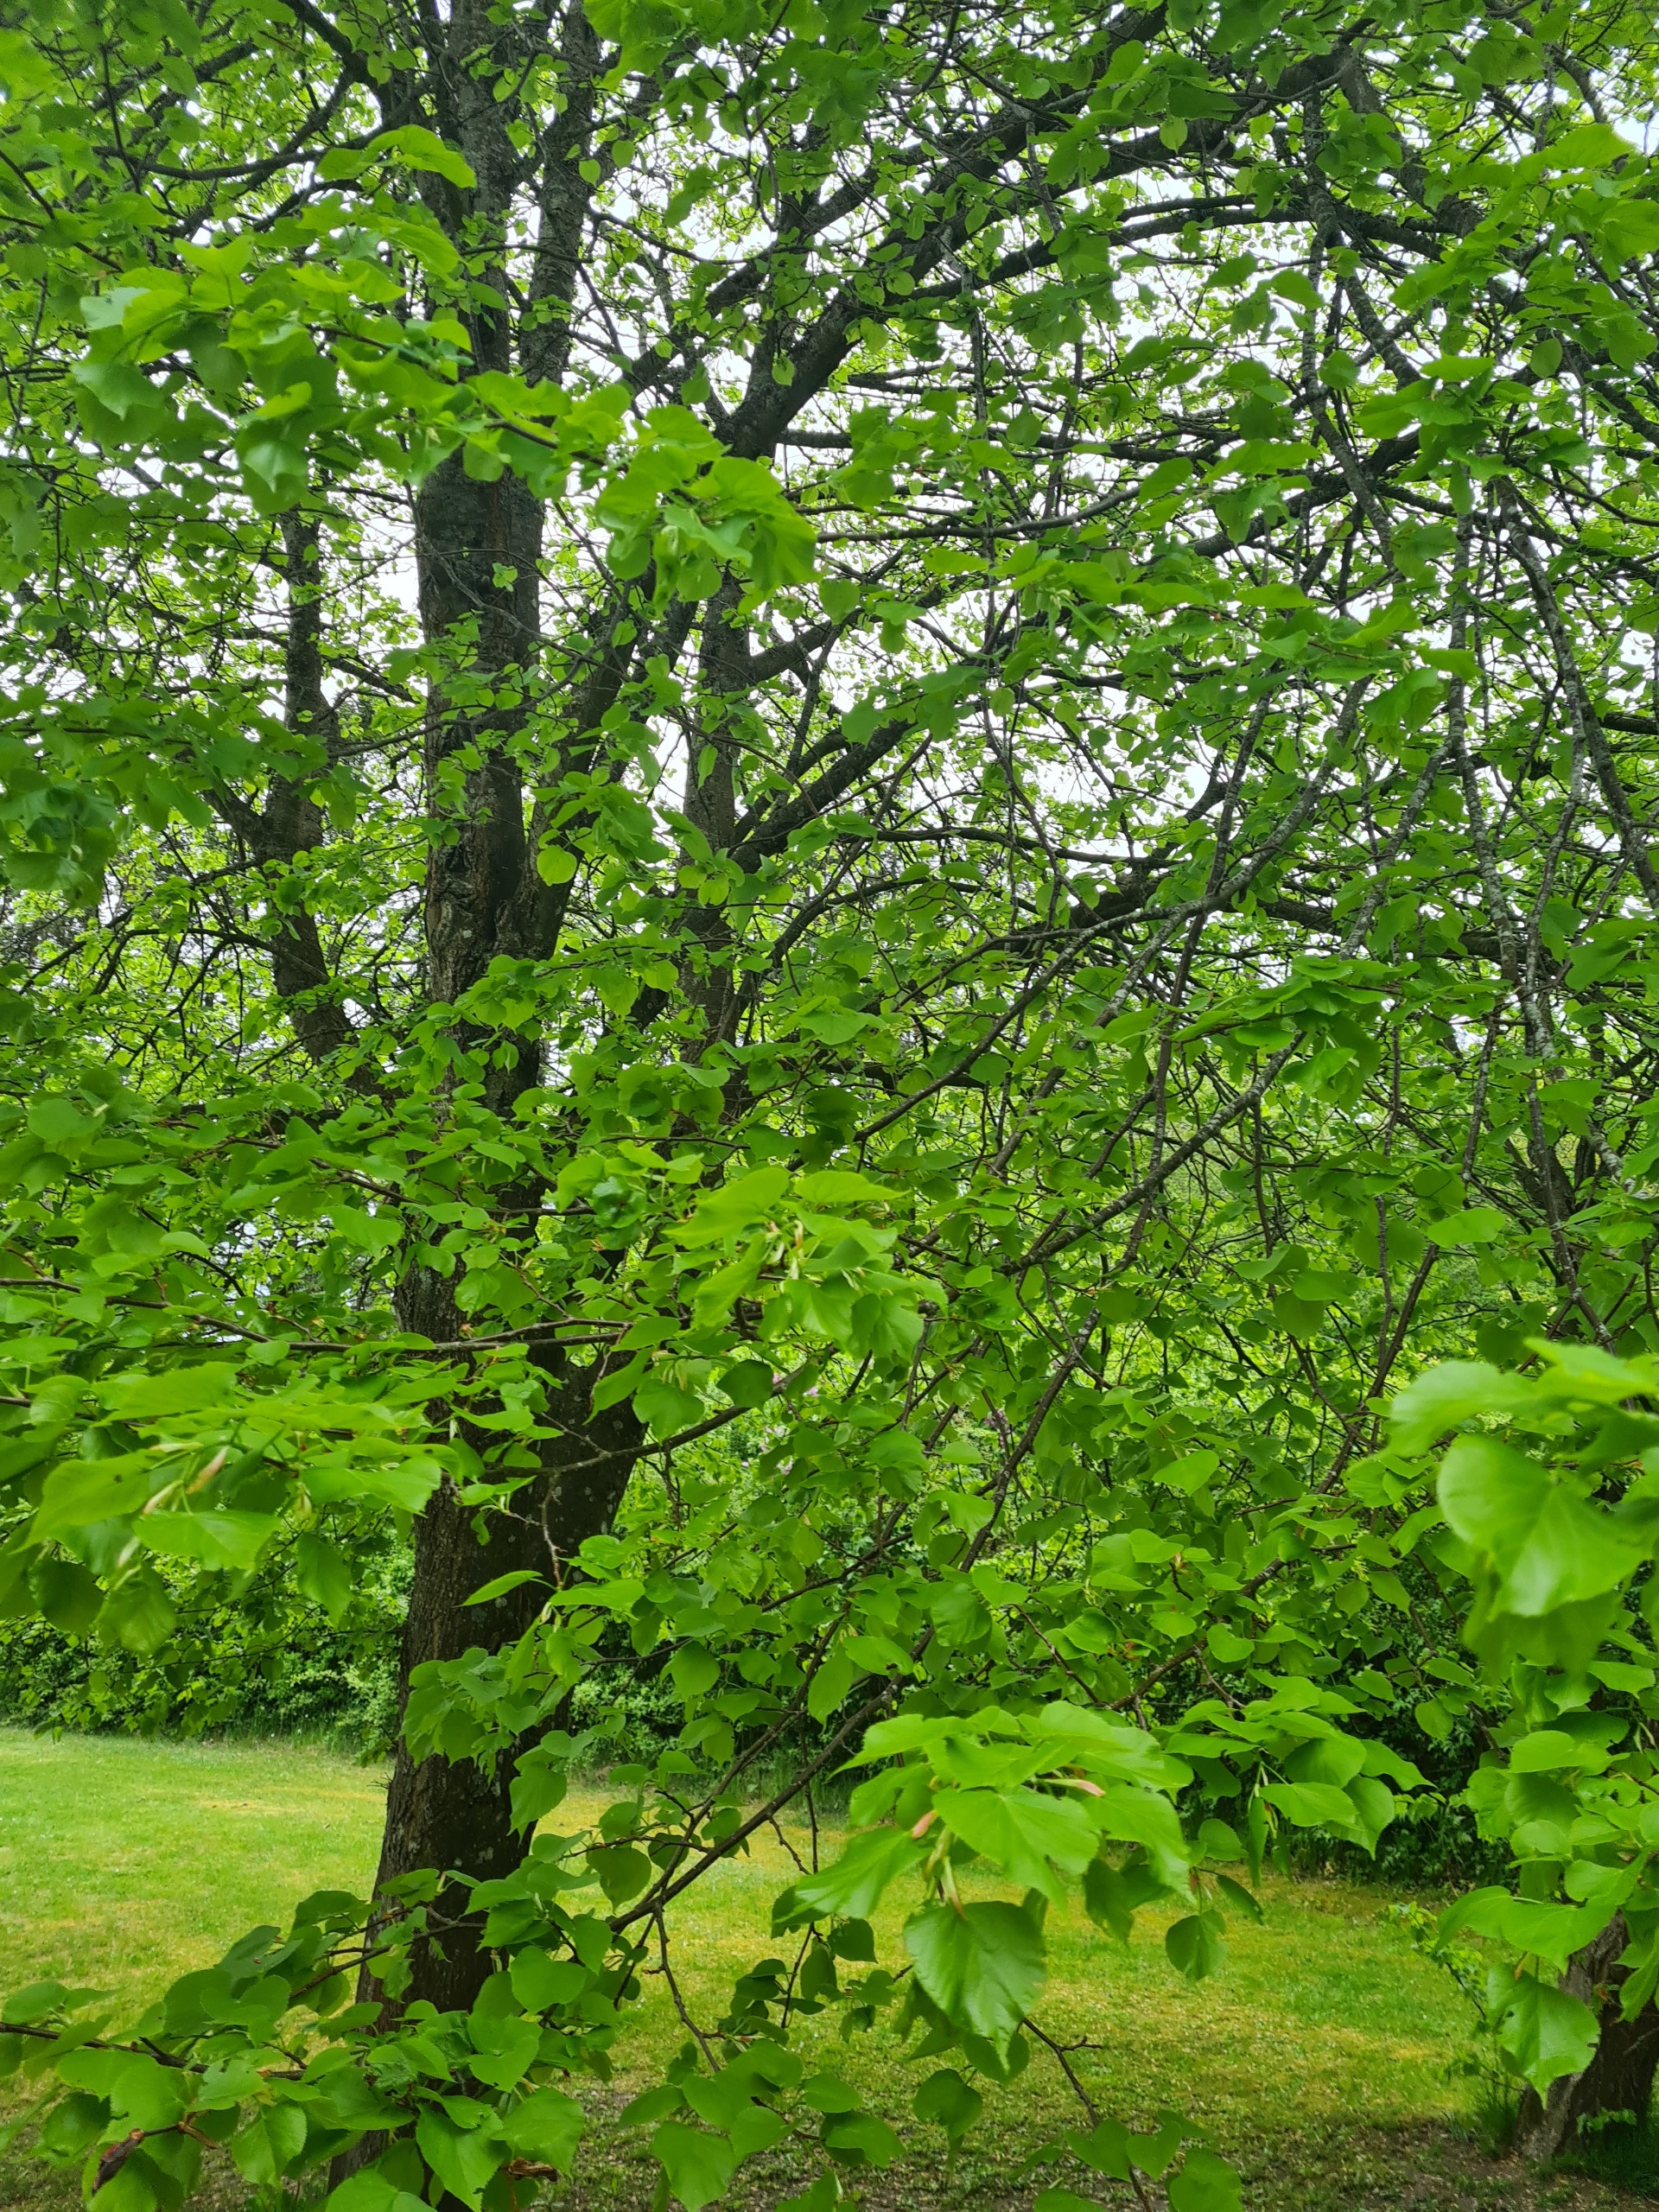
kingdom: Plantae
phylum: Tracheophyta
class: Magnoliopsida
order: Malvales
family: Malvaceae
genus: Tilia
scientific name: Tilia platyphyllos
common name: Storbladet lind
